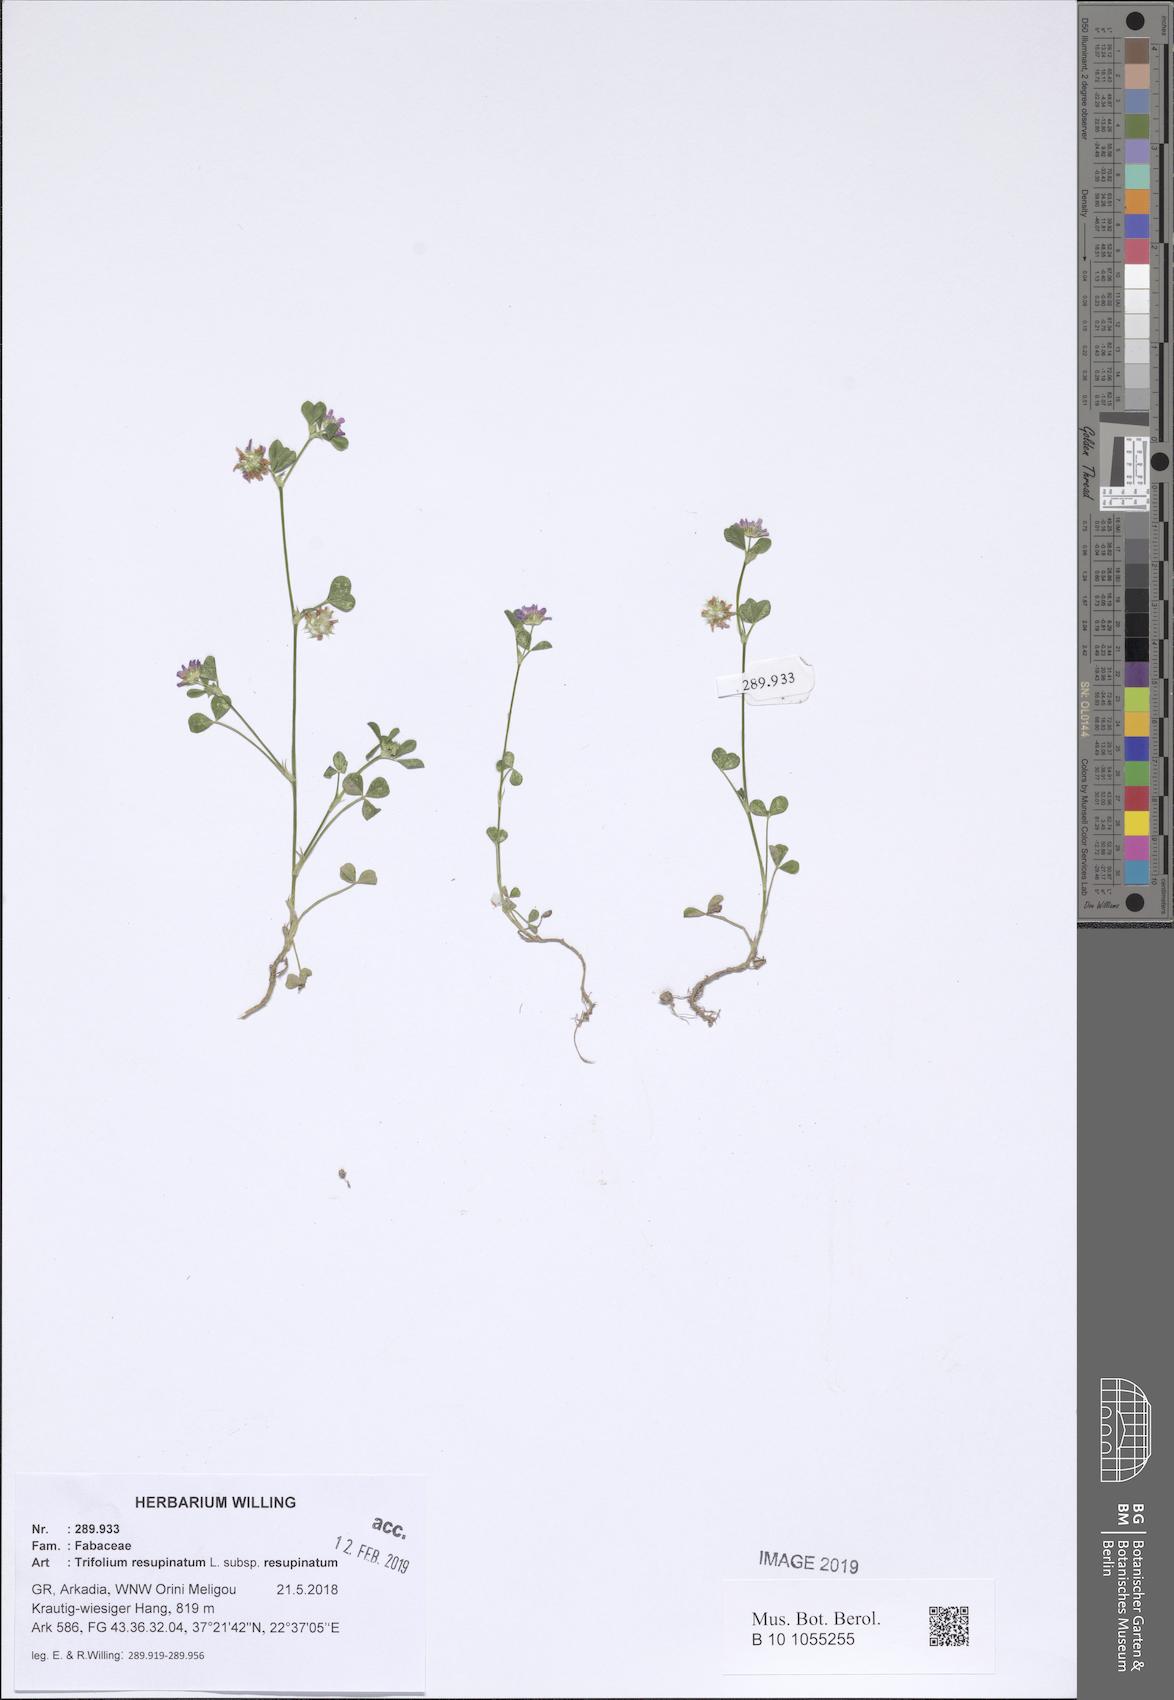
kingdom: Plantae
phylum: Tracheophyta
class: Magnoliopsida
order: Fabales
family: Fabaceae
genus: Trifolium
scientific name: Trifolium resupinatum
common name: Reversed clover
